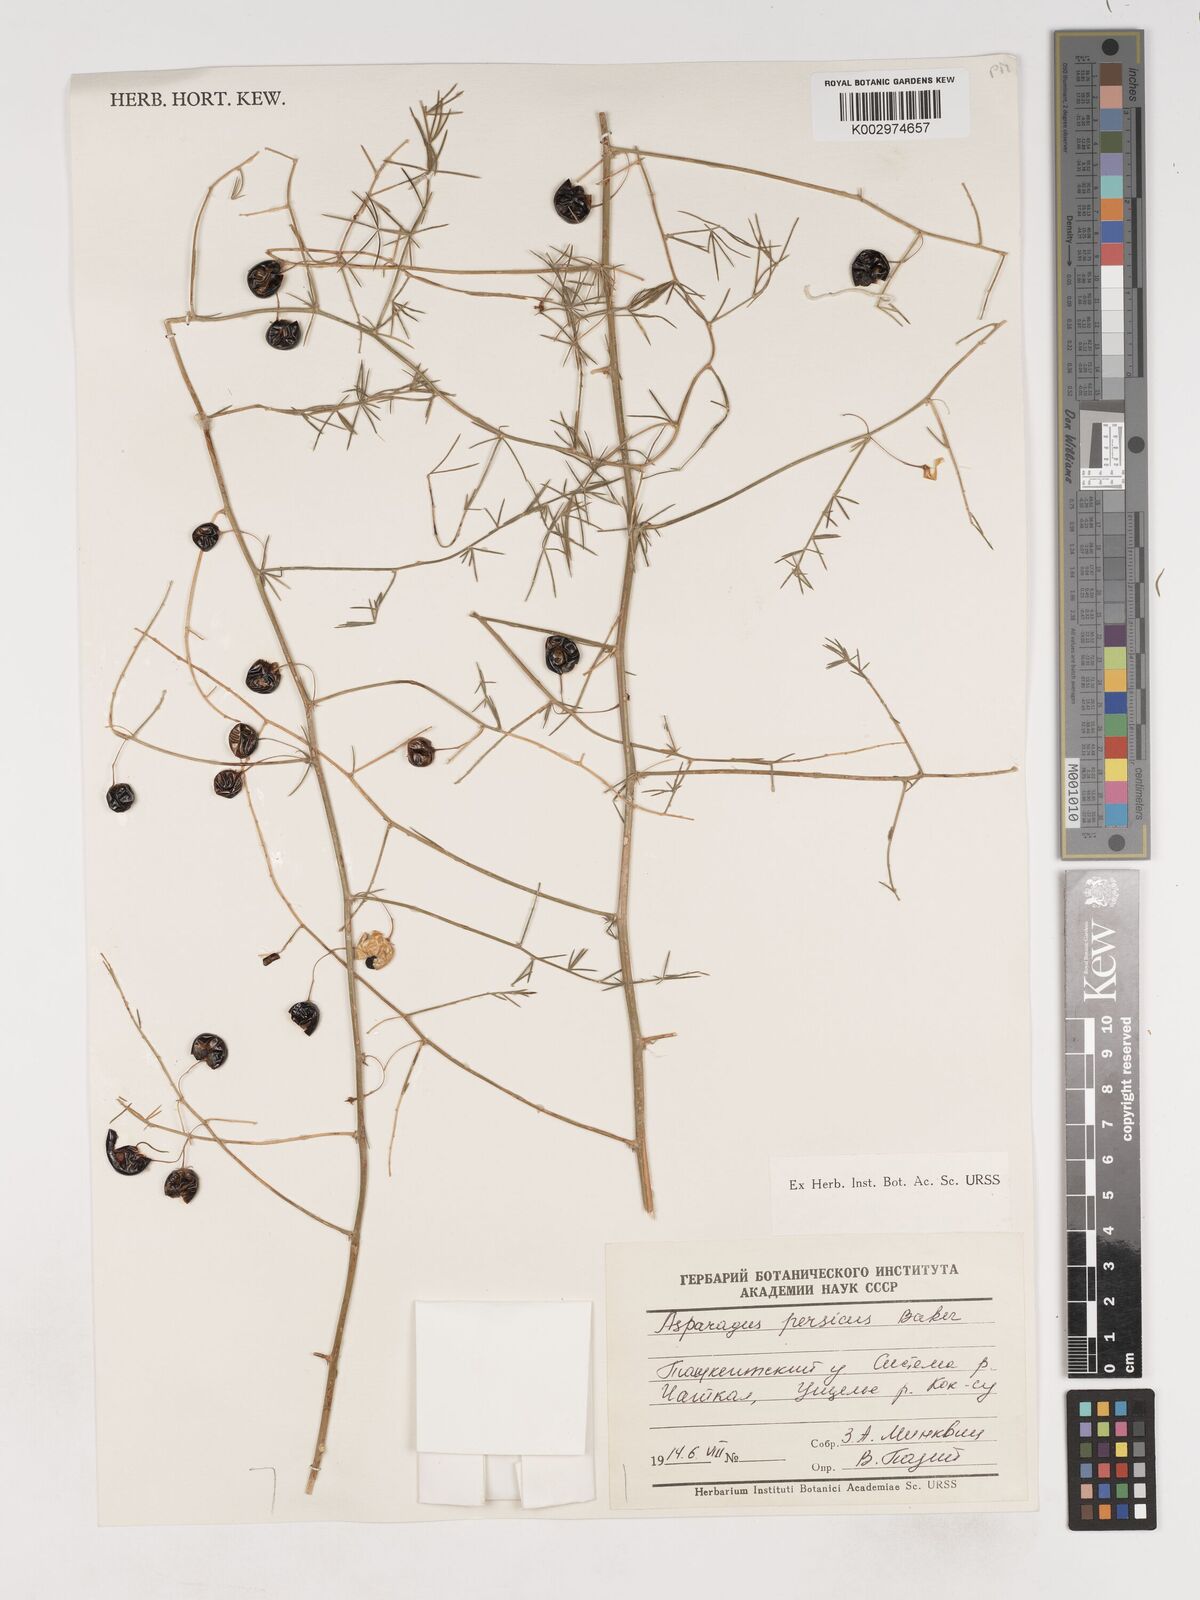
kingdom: Plantae
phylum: Tracheophyta
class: Liliopsida
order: Asparagales
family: Asparagaceae
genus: Asparagus
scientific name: Asparagus persicus
